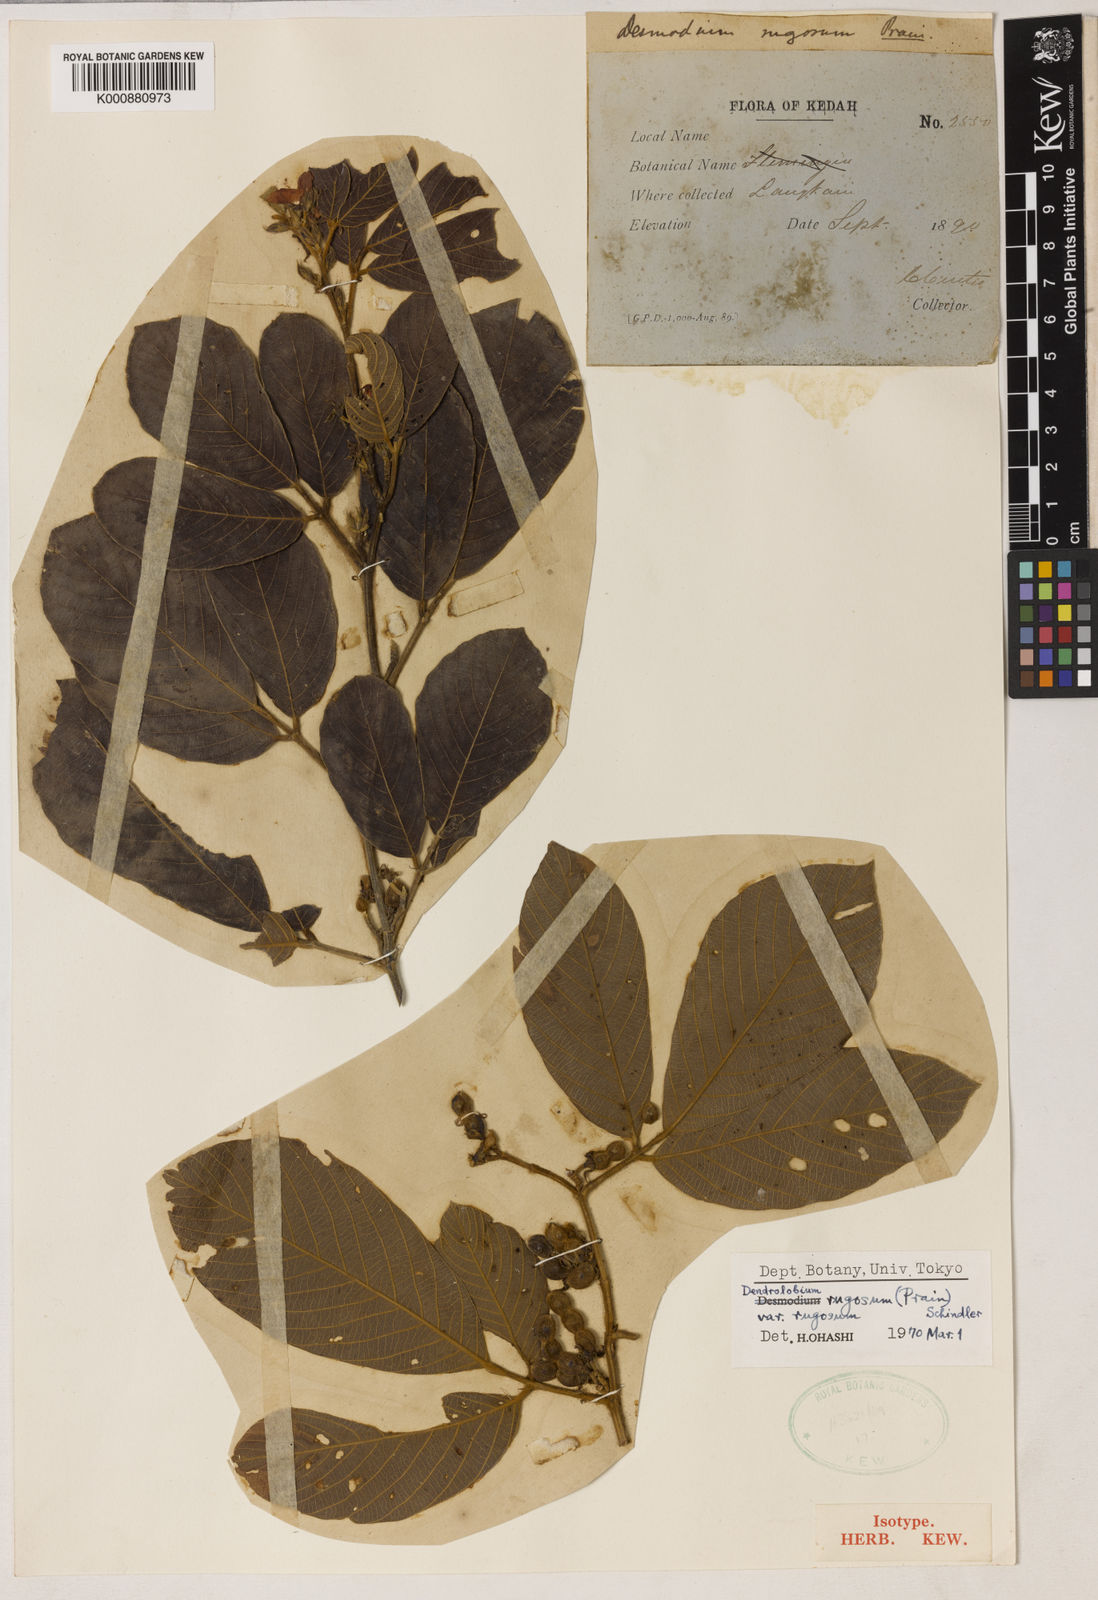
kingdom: Plantae
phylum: Tracheophyta
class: Magnoliopsida
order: Fabales
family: Fabaceae
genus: Dendrolobium
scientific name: Dendrolobium rugosum
